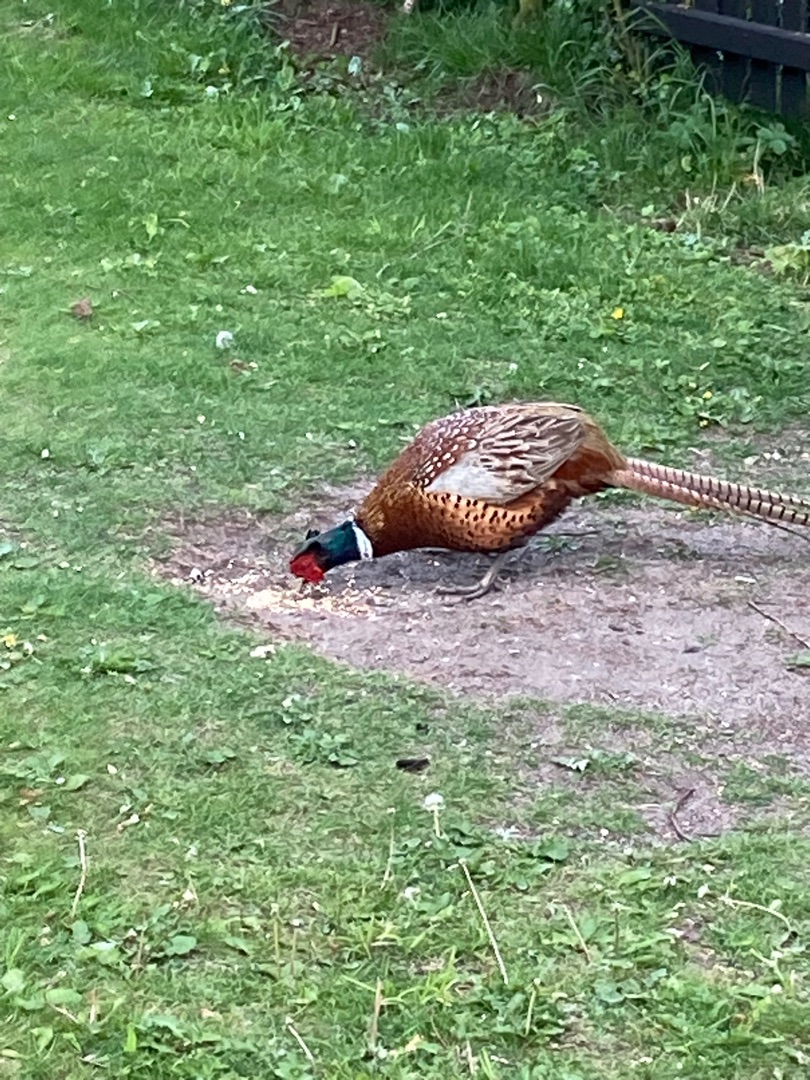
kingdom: Animalia
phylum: Chordata
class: Aves
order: Galliformes
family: Phasianidae
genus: Phasianus
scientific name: Phasianus colchicus
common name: Fasan
